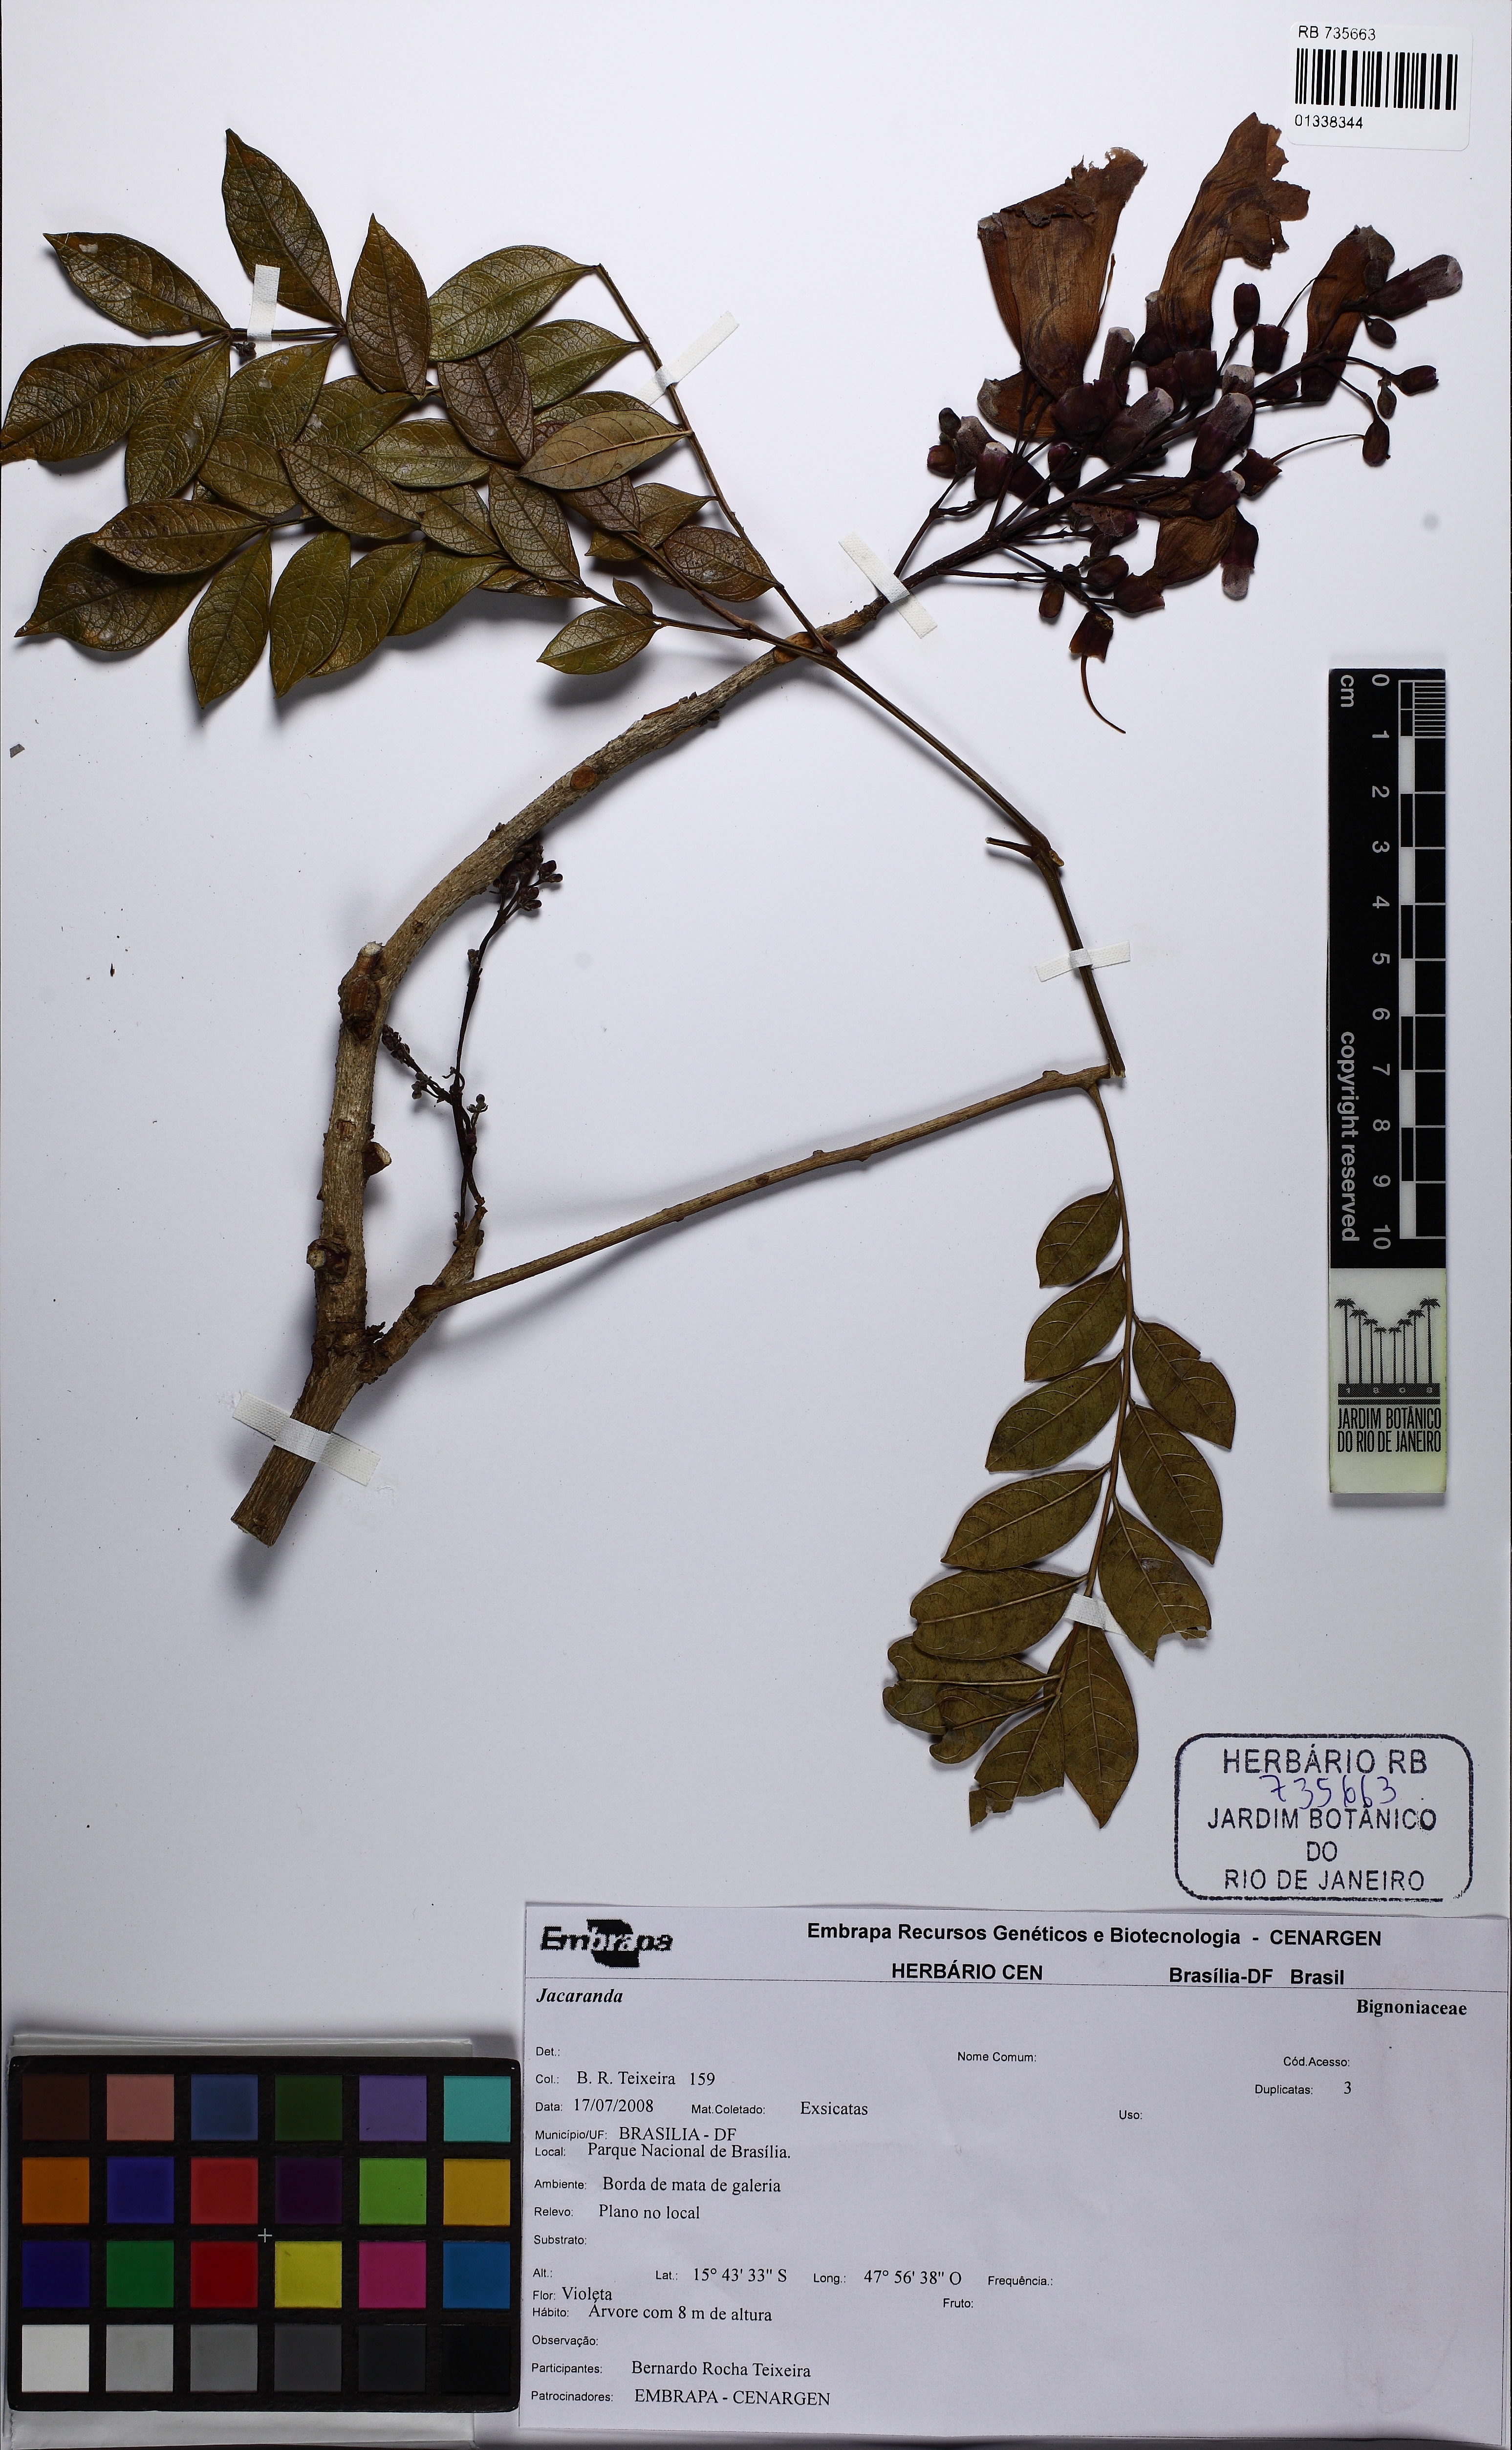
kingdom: Plantae
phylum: Tracheophyta
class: Magnoliopsida
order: Lamiales
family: Bignoniaceae
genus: Jacaranda
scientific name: Jacaranda
